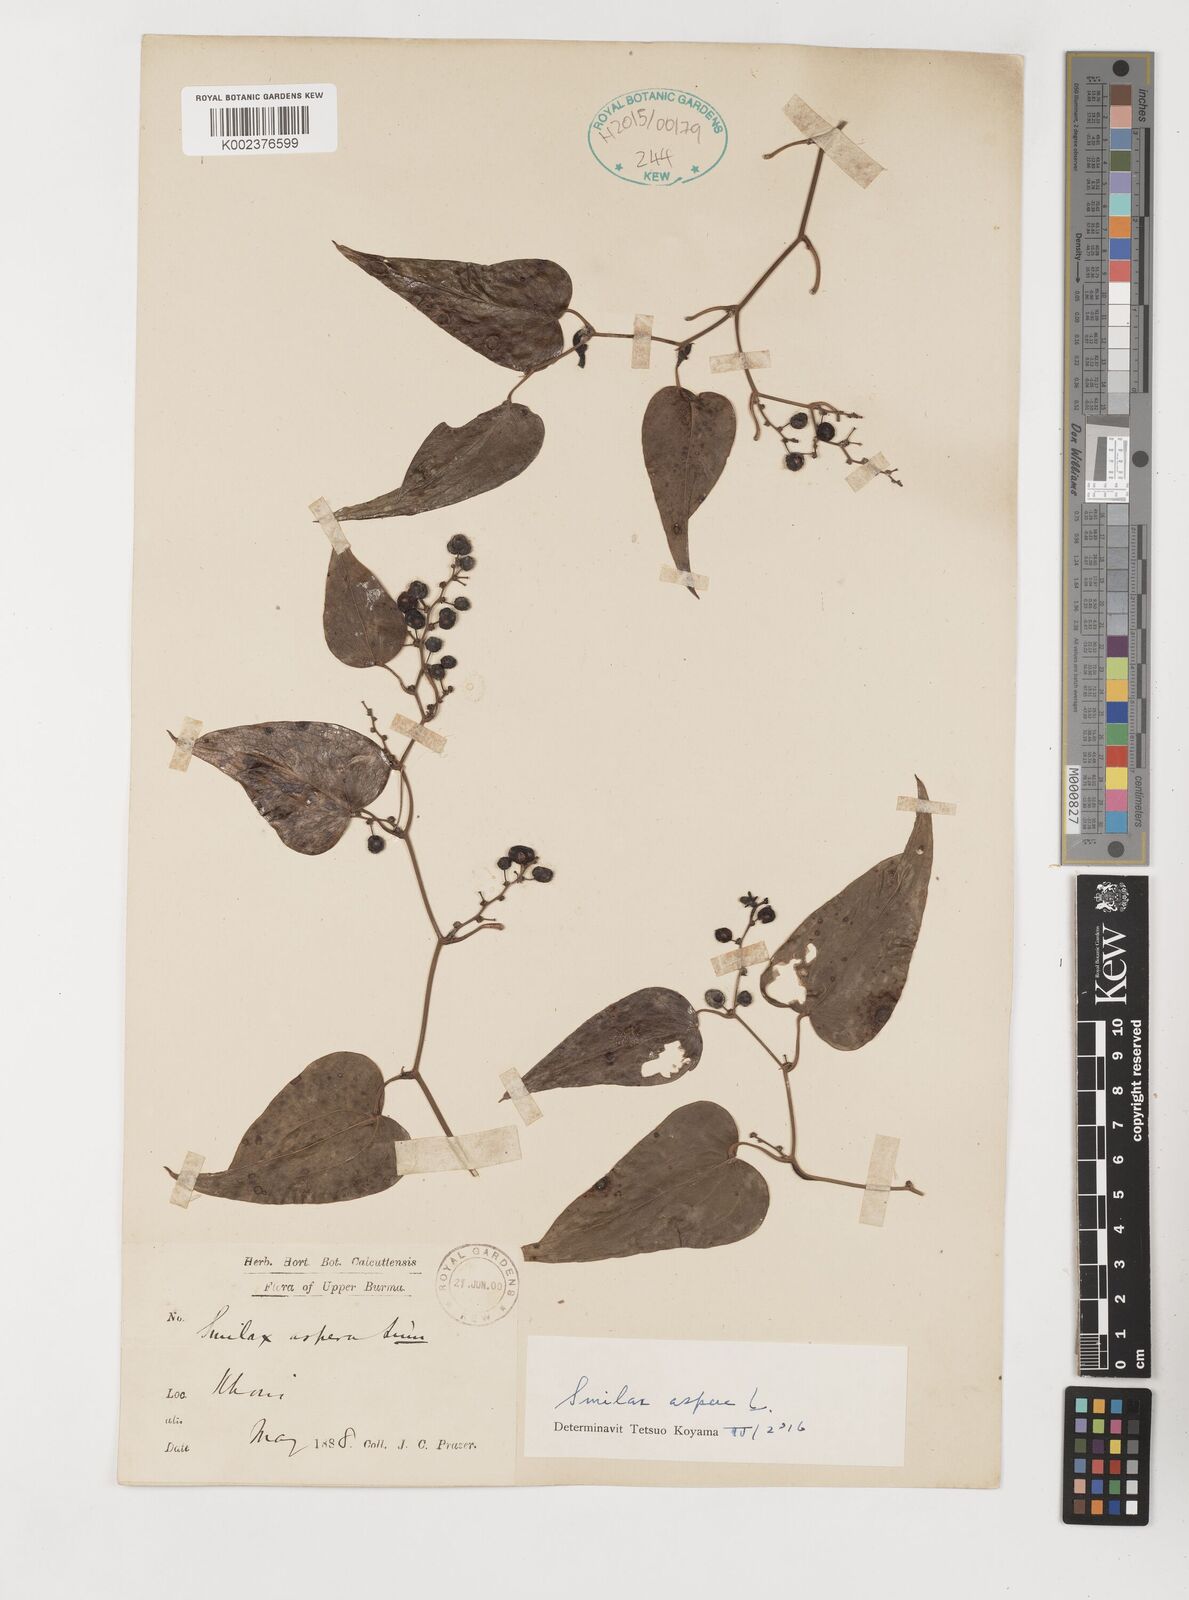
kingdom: Plantae
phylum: Tracheophyta
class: Liliopsida
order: Liliales
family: Smilacaceae
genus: Smilax
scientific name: Smilax aspera
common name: Common smilax
